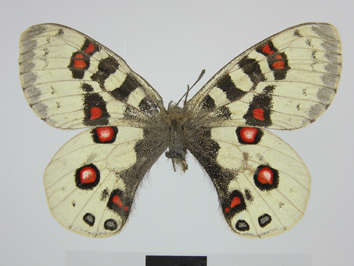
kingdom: Animalia
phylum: Arthropoda
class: Insecta
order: Lepidoptera
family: Papilionidae
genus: Parnassius
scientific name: Parnassius orleans
